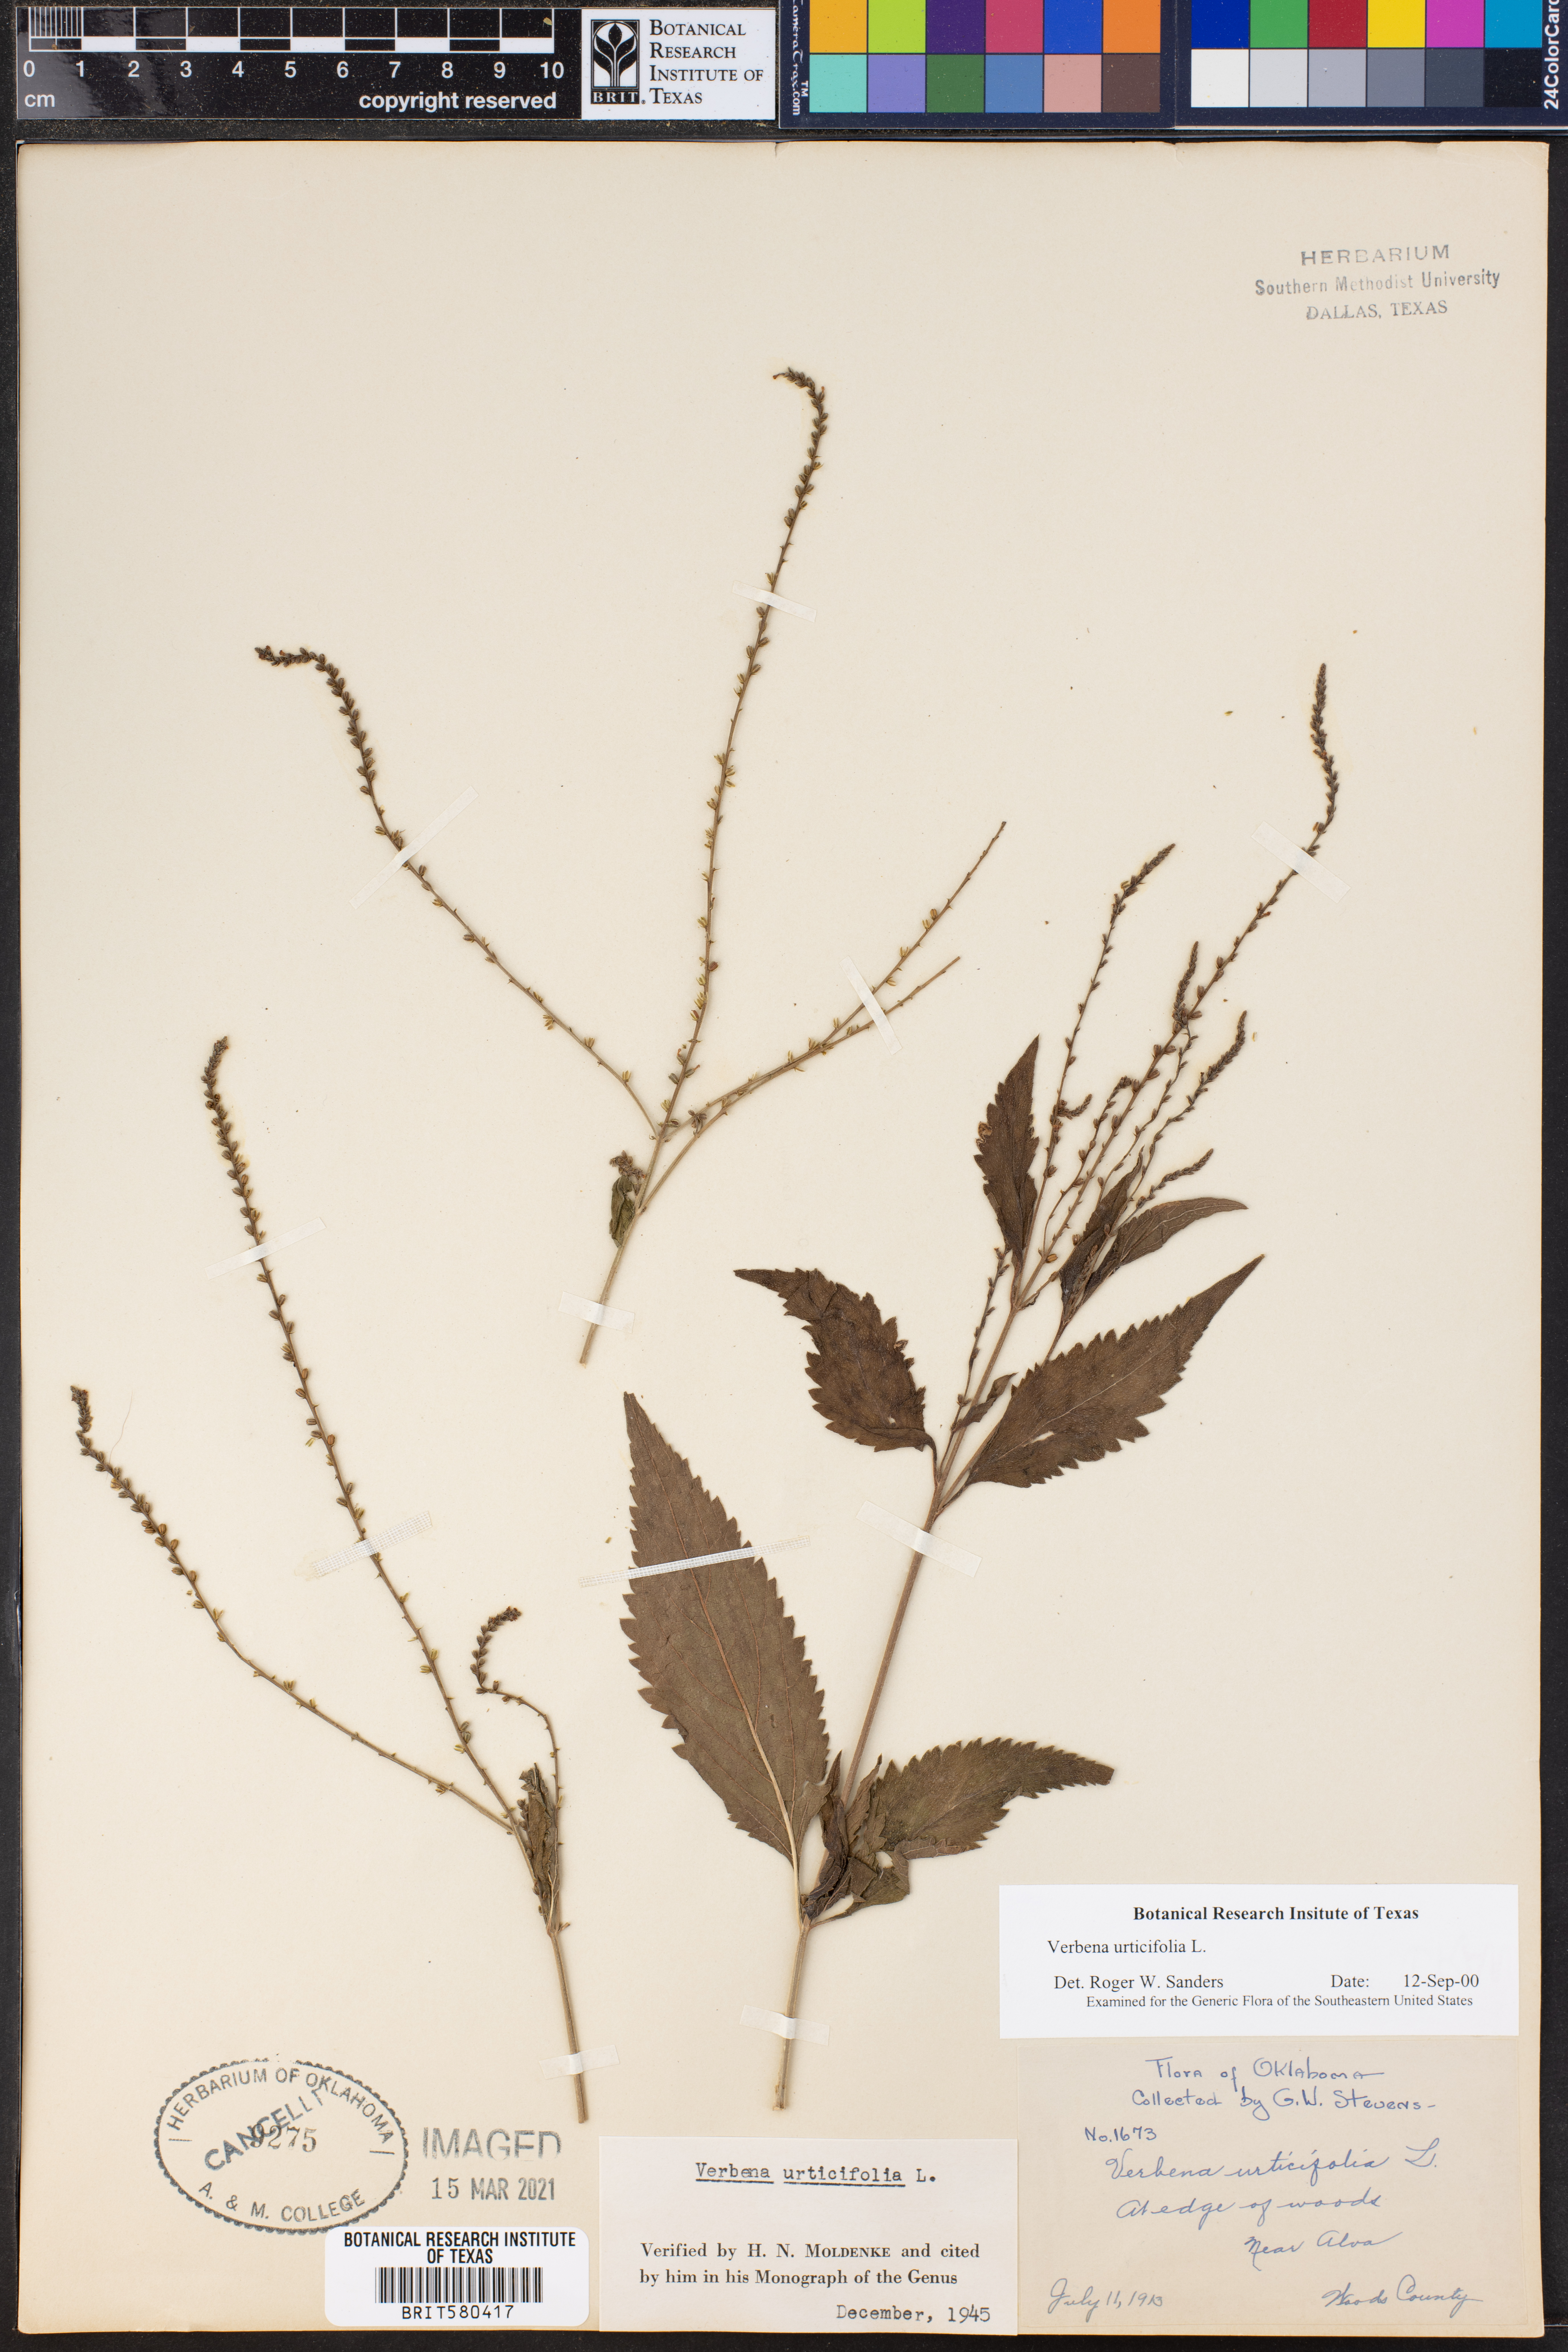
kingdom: Plantae
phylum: Tracheophyta
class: Magnoliopsida
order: Lamiales
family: Verbenaceae
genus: Verbena
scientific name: Verbena urticifolia
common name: Nettle-leaved vervain
